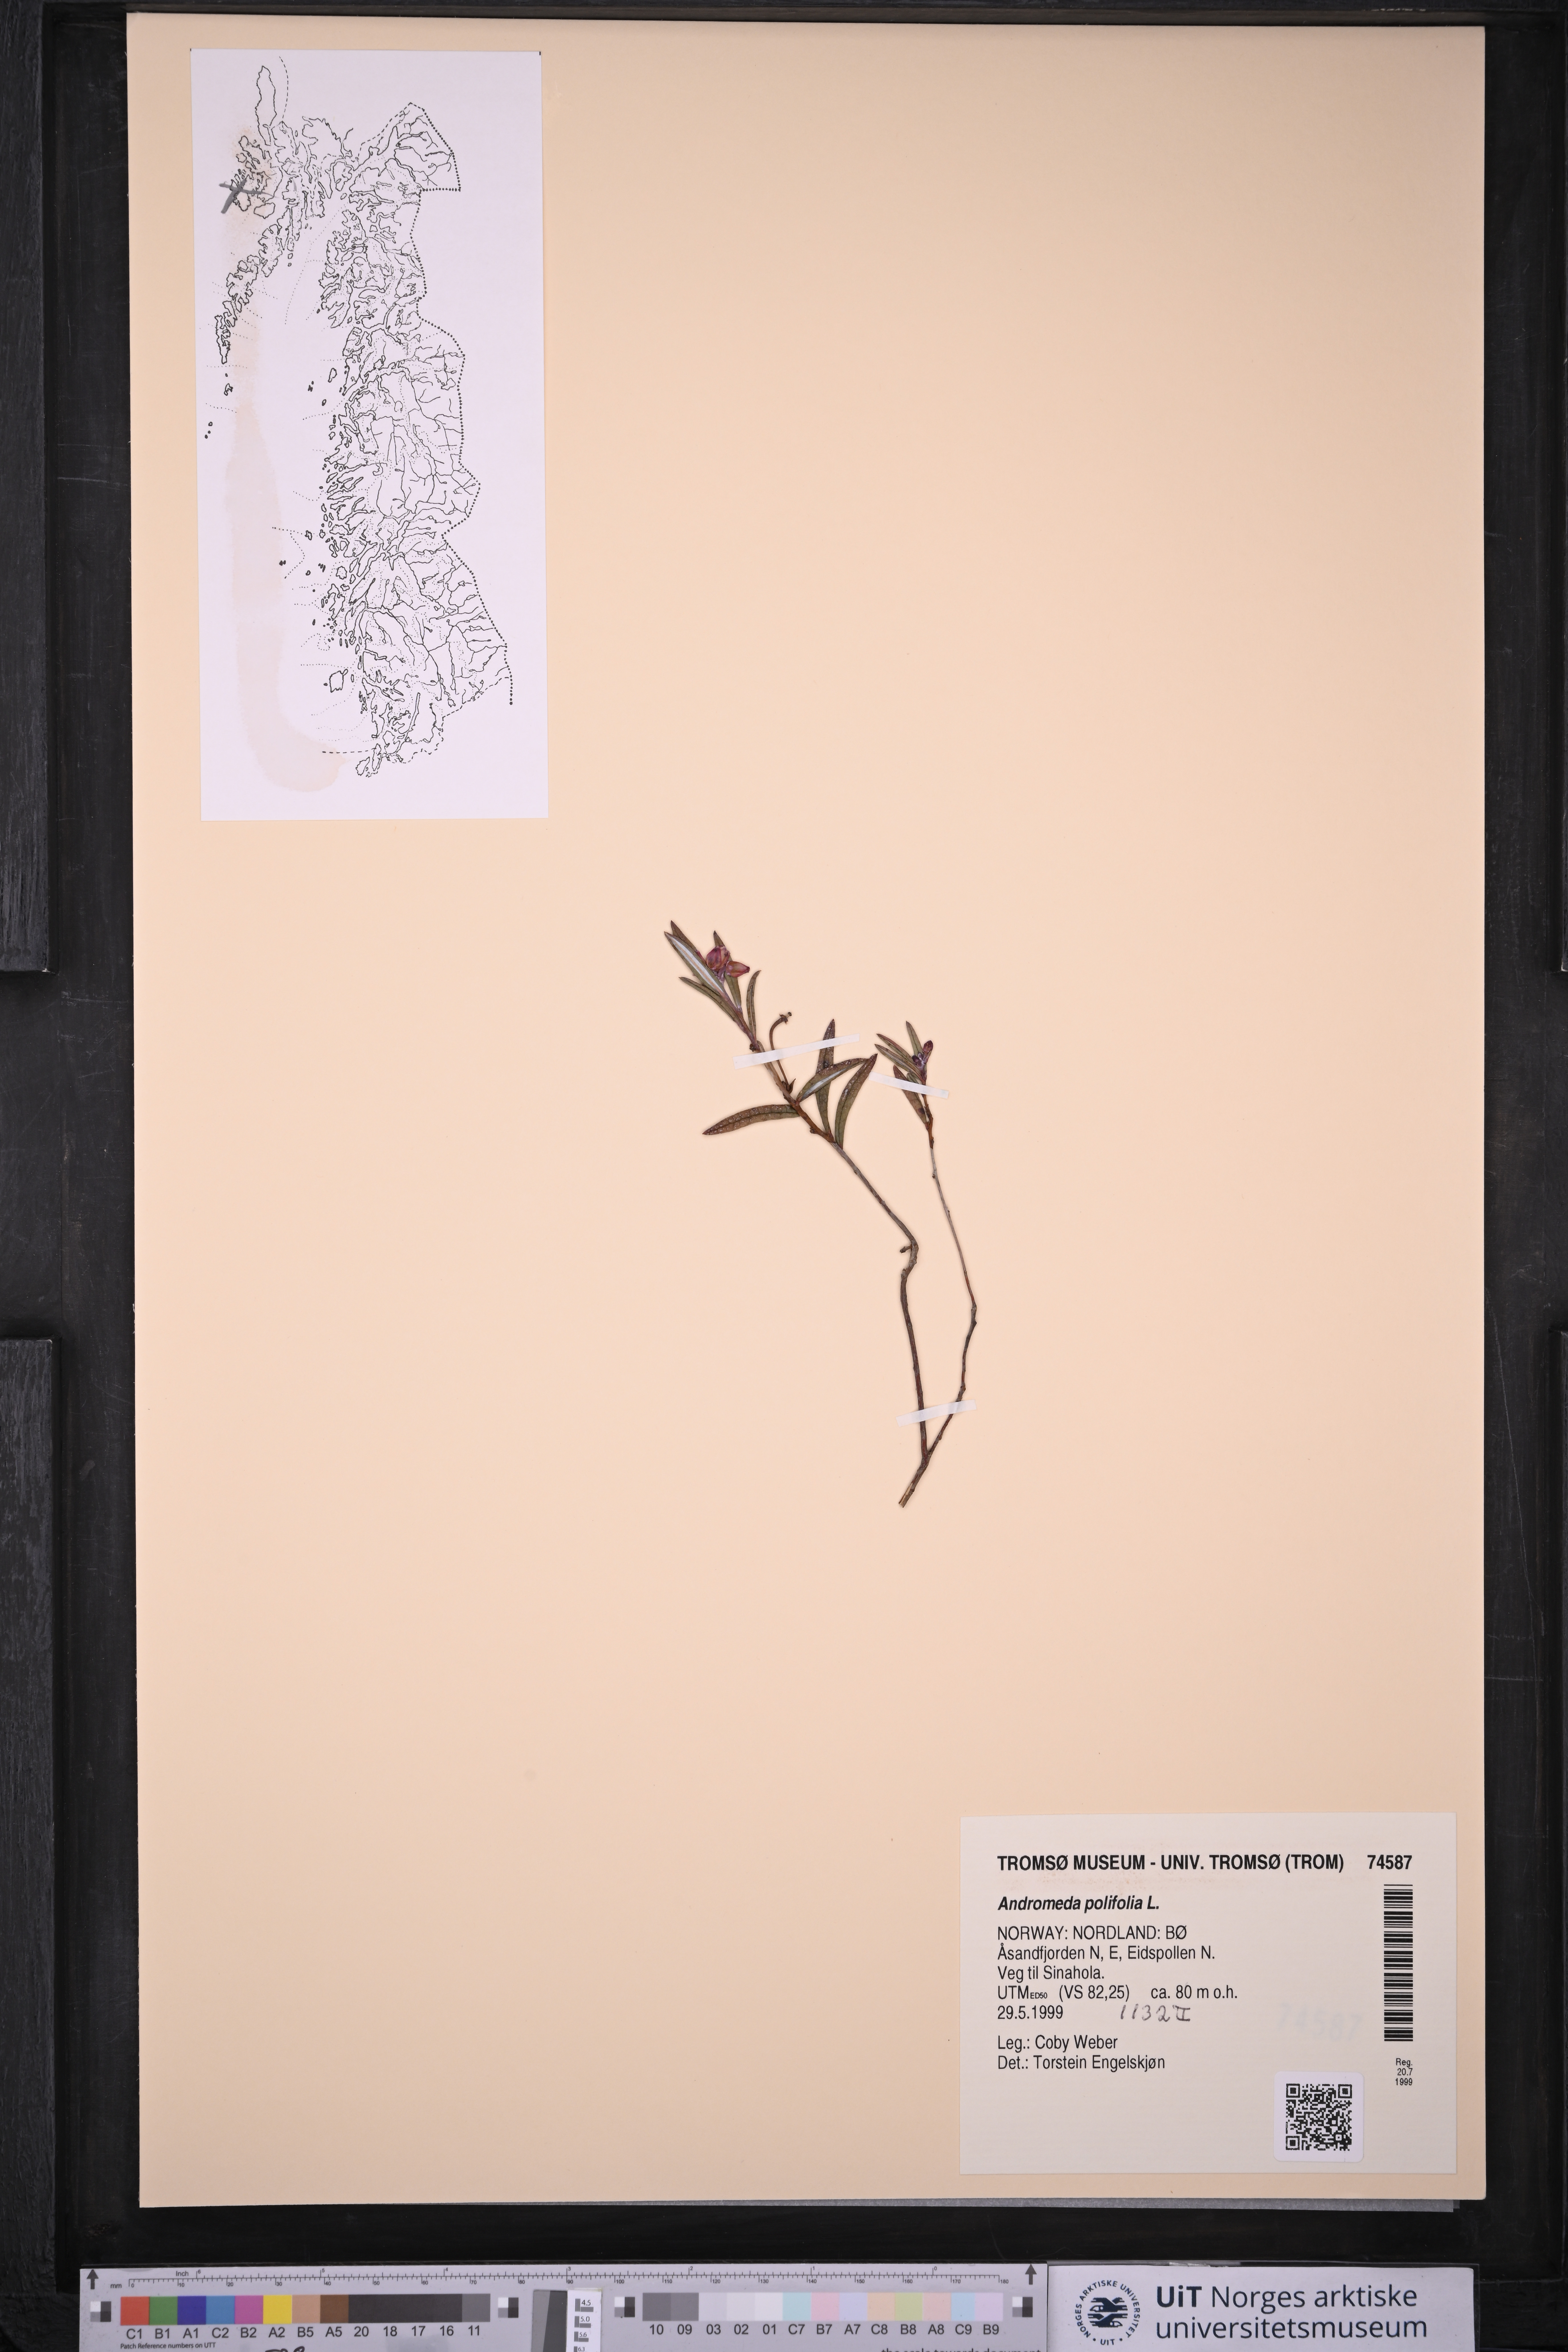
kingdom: Plantae
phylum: Tracheophyta
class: Magnoliopsida
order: Ericales
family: Ericaceae
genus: Andromeda
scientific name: Andromeda polifolia
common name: Bog-rosemary
